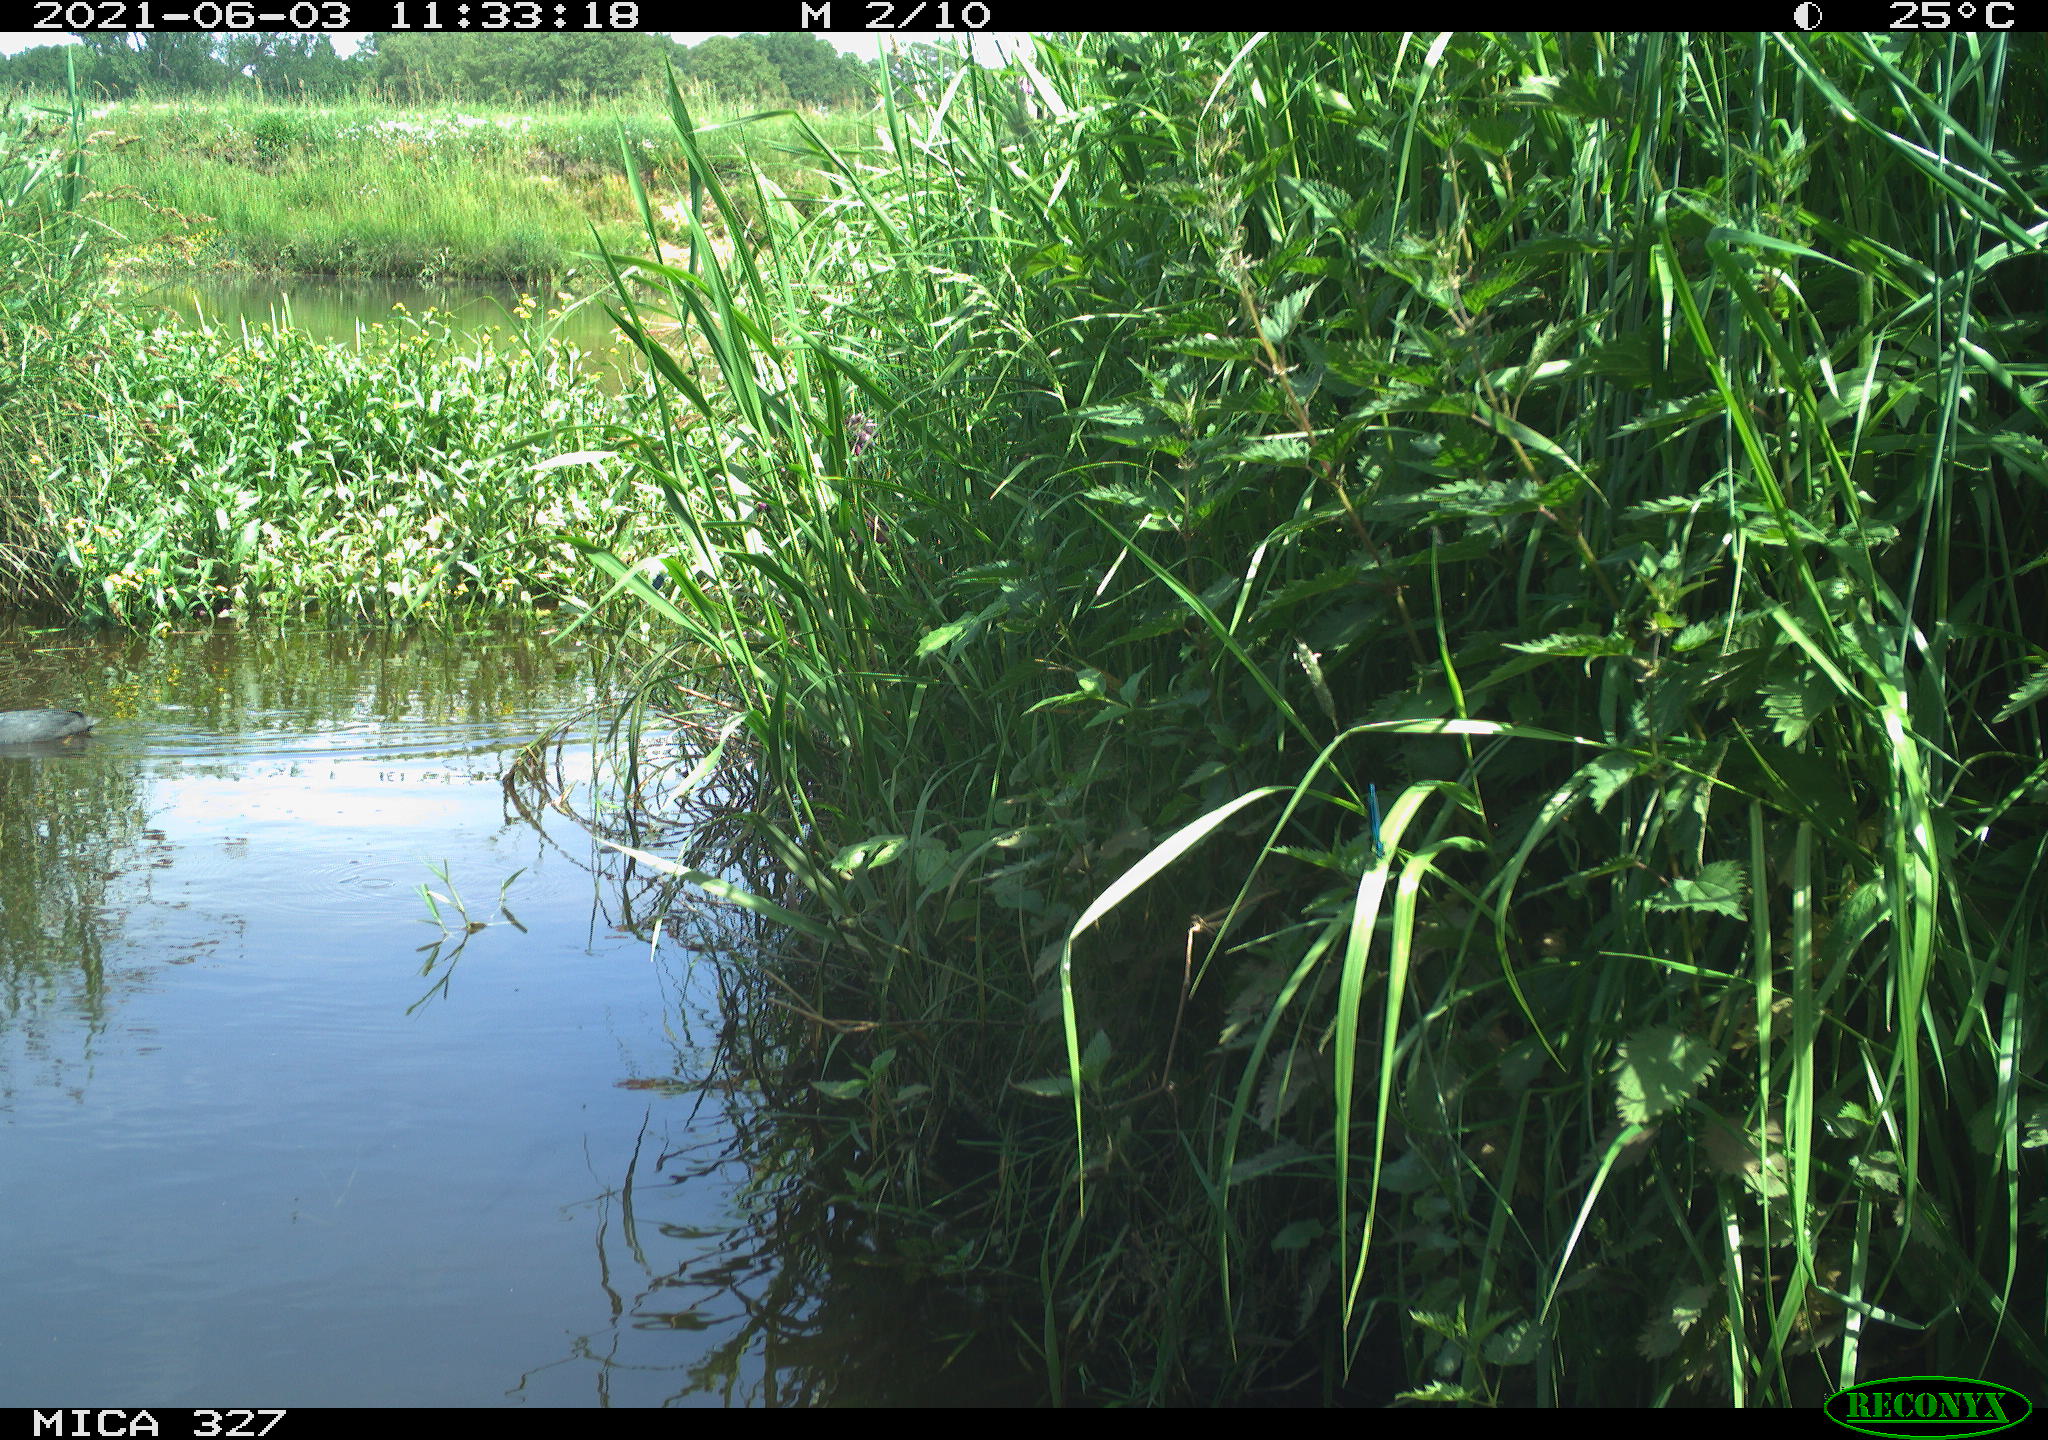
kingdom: Animalia
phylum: Chordata
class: Aves
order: Gruiformes
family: Rallidae
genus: Fulica
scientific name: Fulica atra
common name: Eurasian coot
